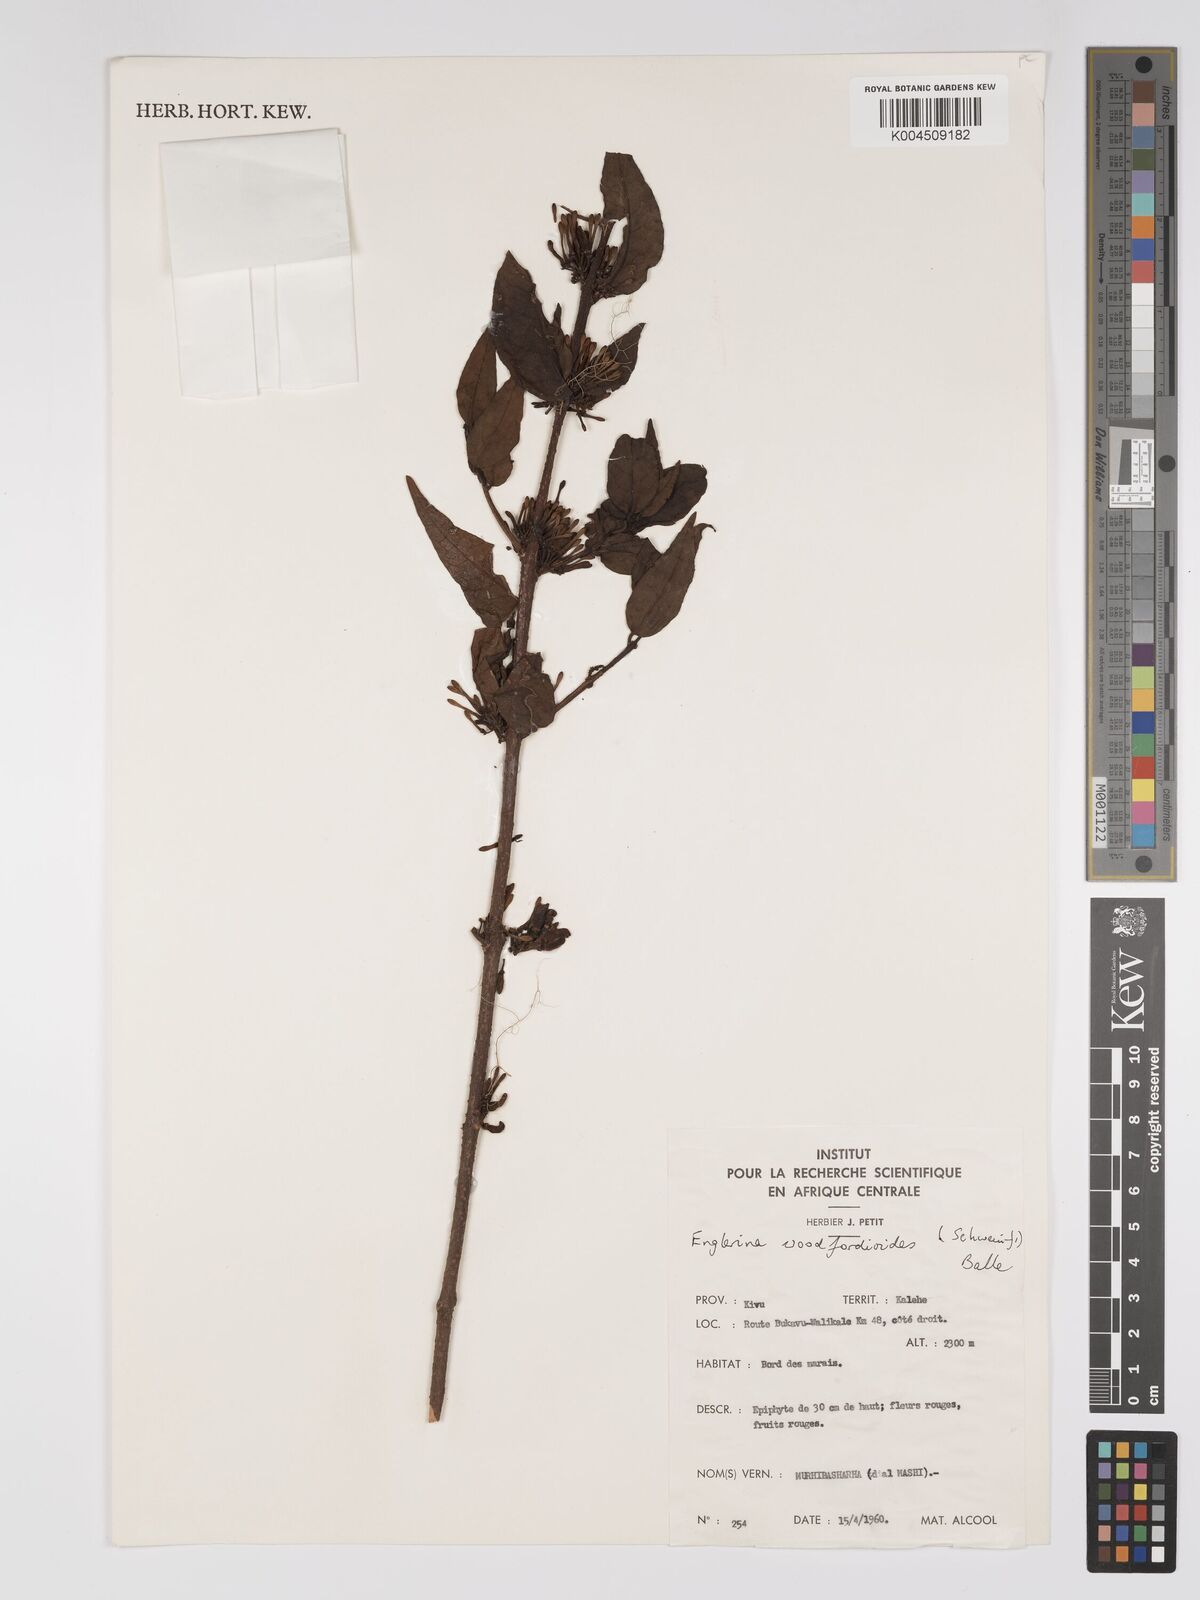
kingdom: Plantae
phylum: Tracheophyta
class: Magnoliopsida
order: Santalales
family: Loranthaceae
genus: Englerina
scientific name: Englerina woodfordioides
